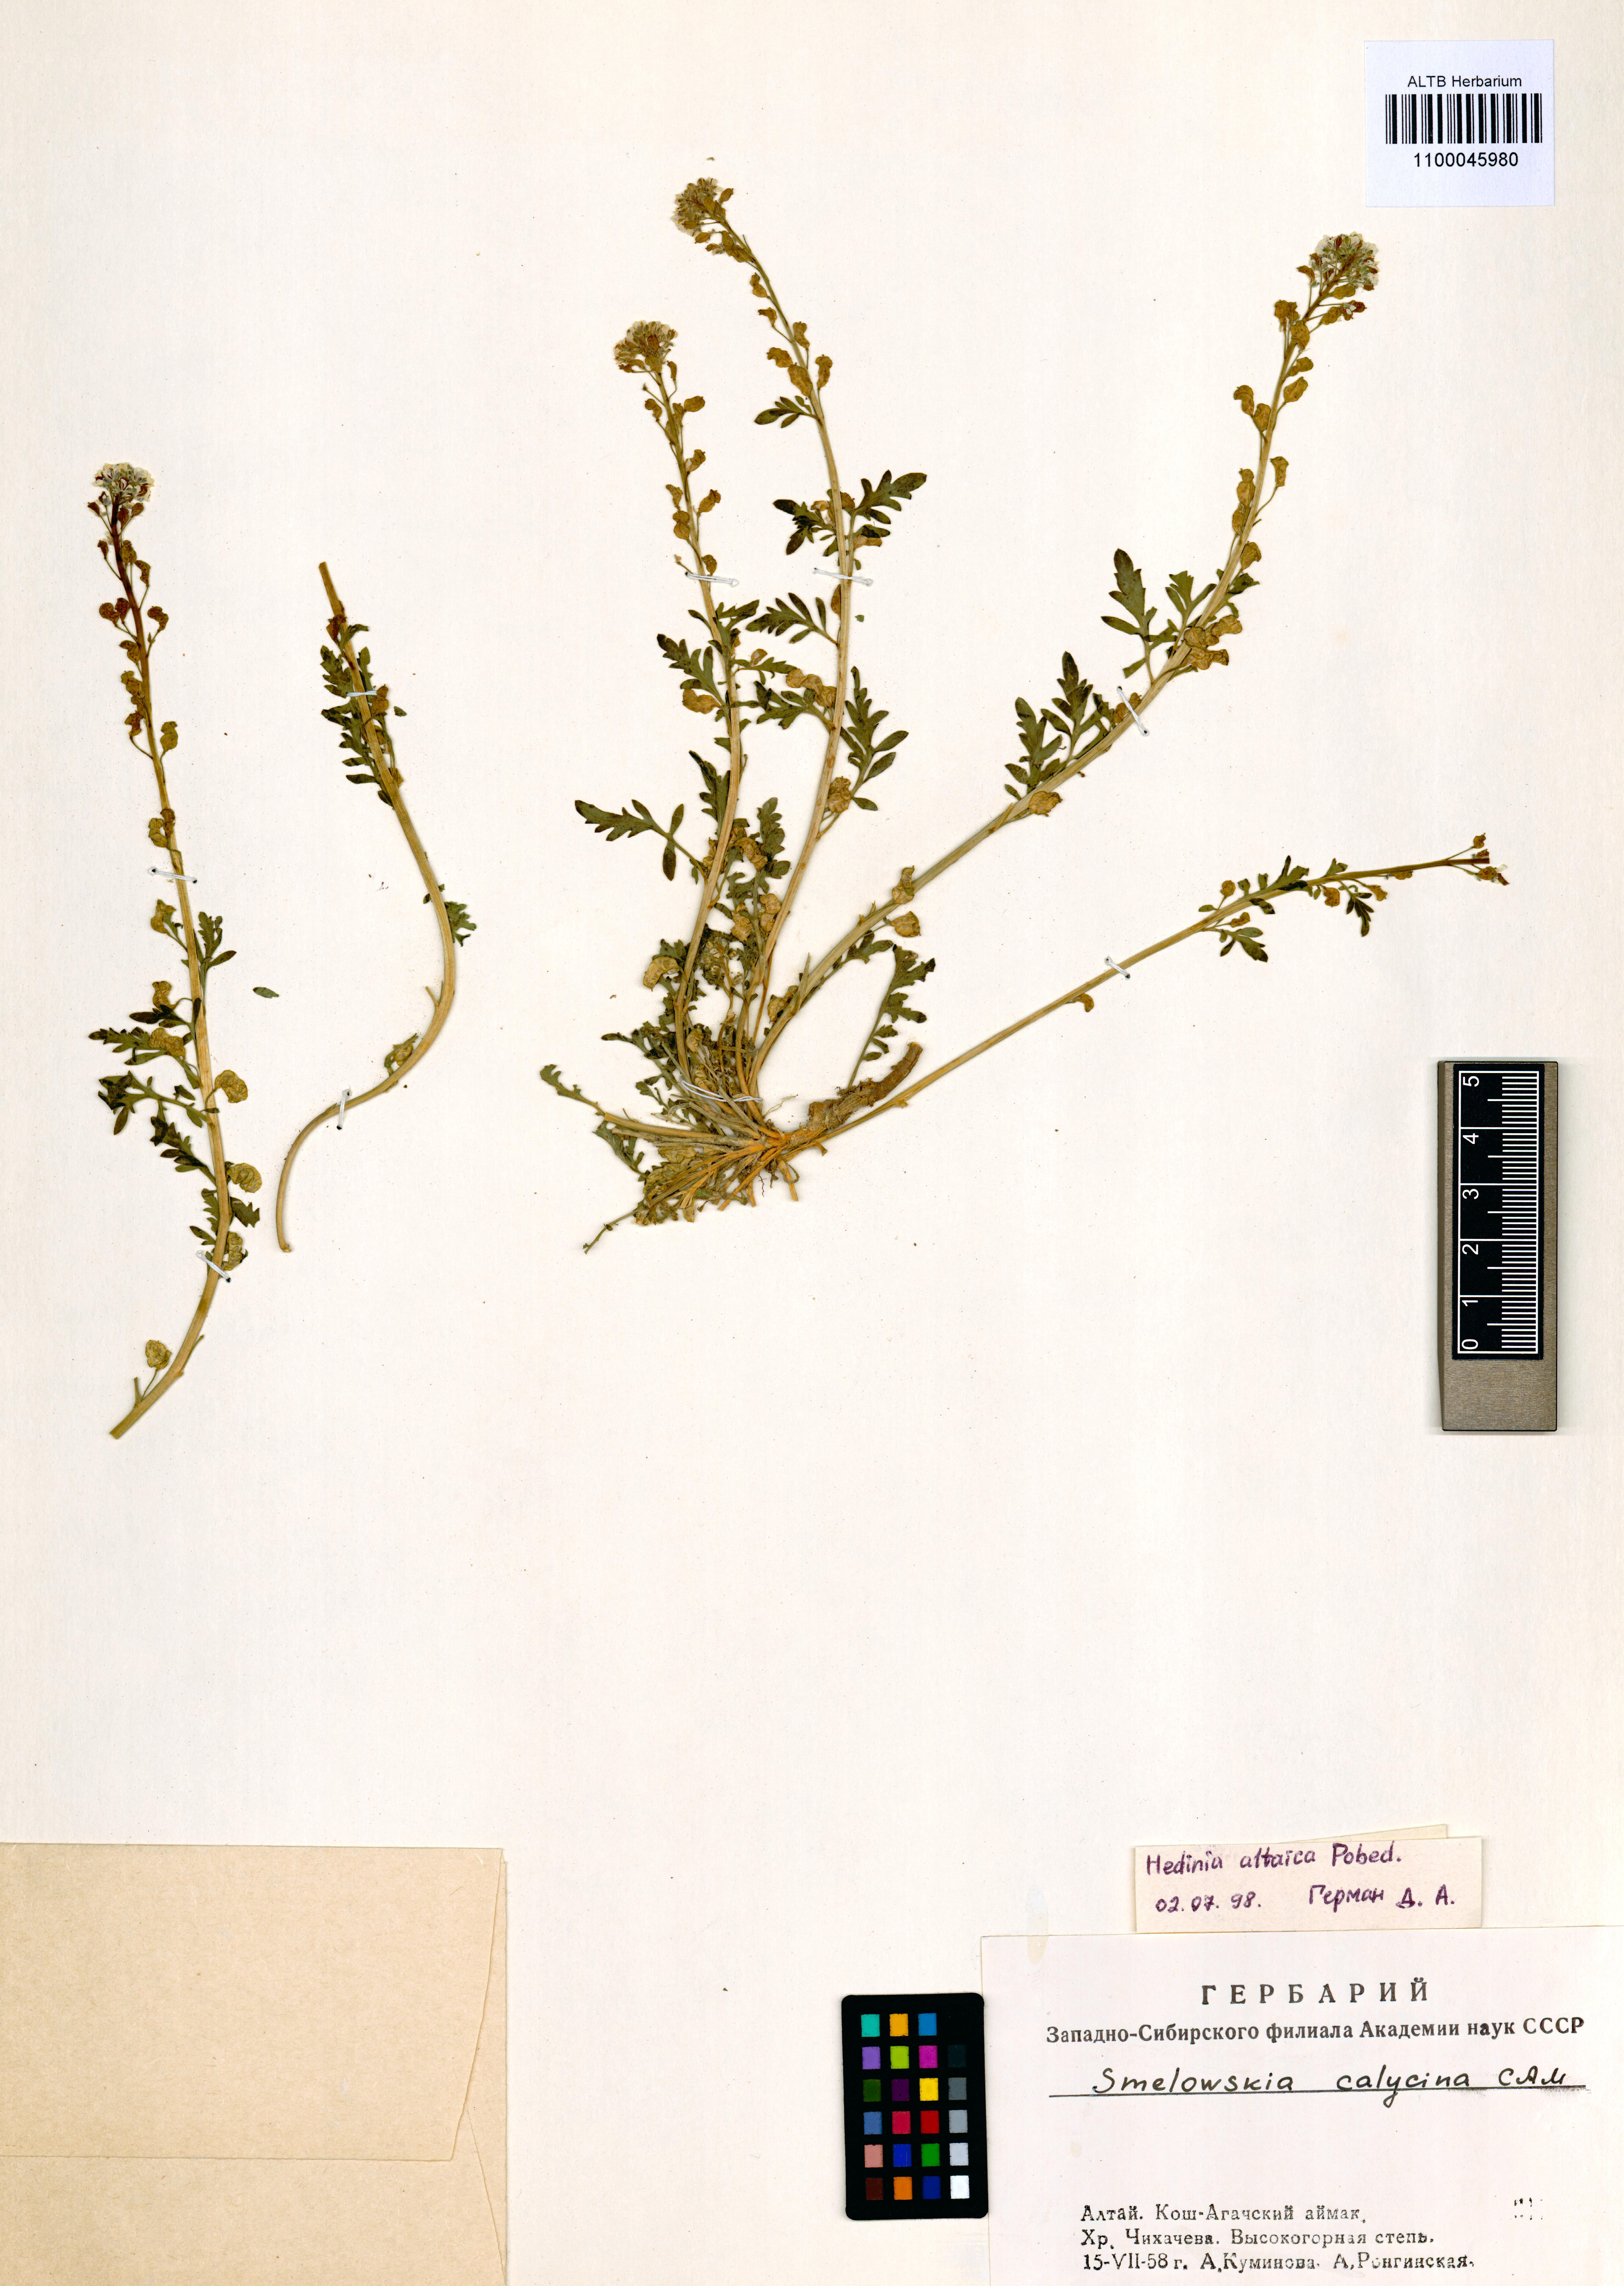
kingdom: Plantae
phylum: Tracheophyta
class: Magnoliopsida
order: Brassicales
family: Brassicaceae
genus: Smelowskia
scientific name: Smelowskia altaica
